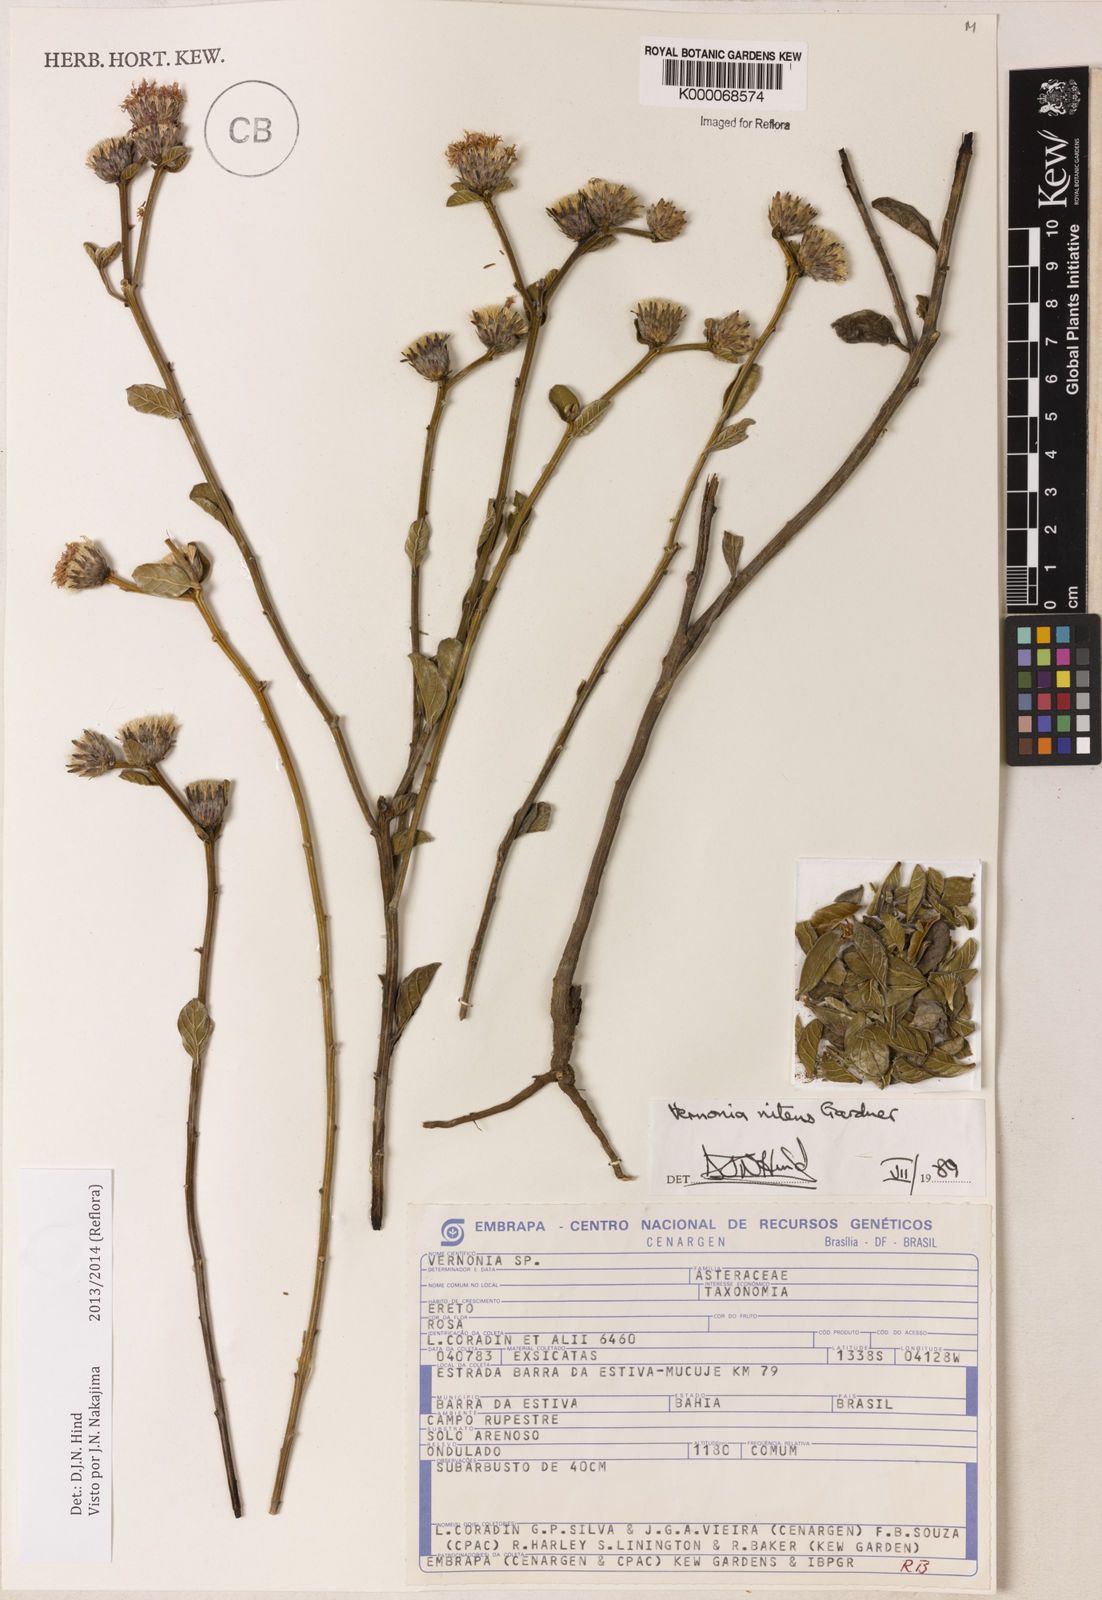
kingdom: Plantae
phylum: Tracheophyta
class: Magnoliopsida
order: Asterales
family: Asteraceae
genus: Lepidaploa
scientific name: Lepidaploa nitens
